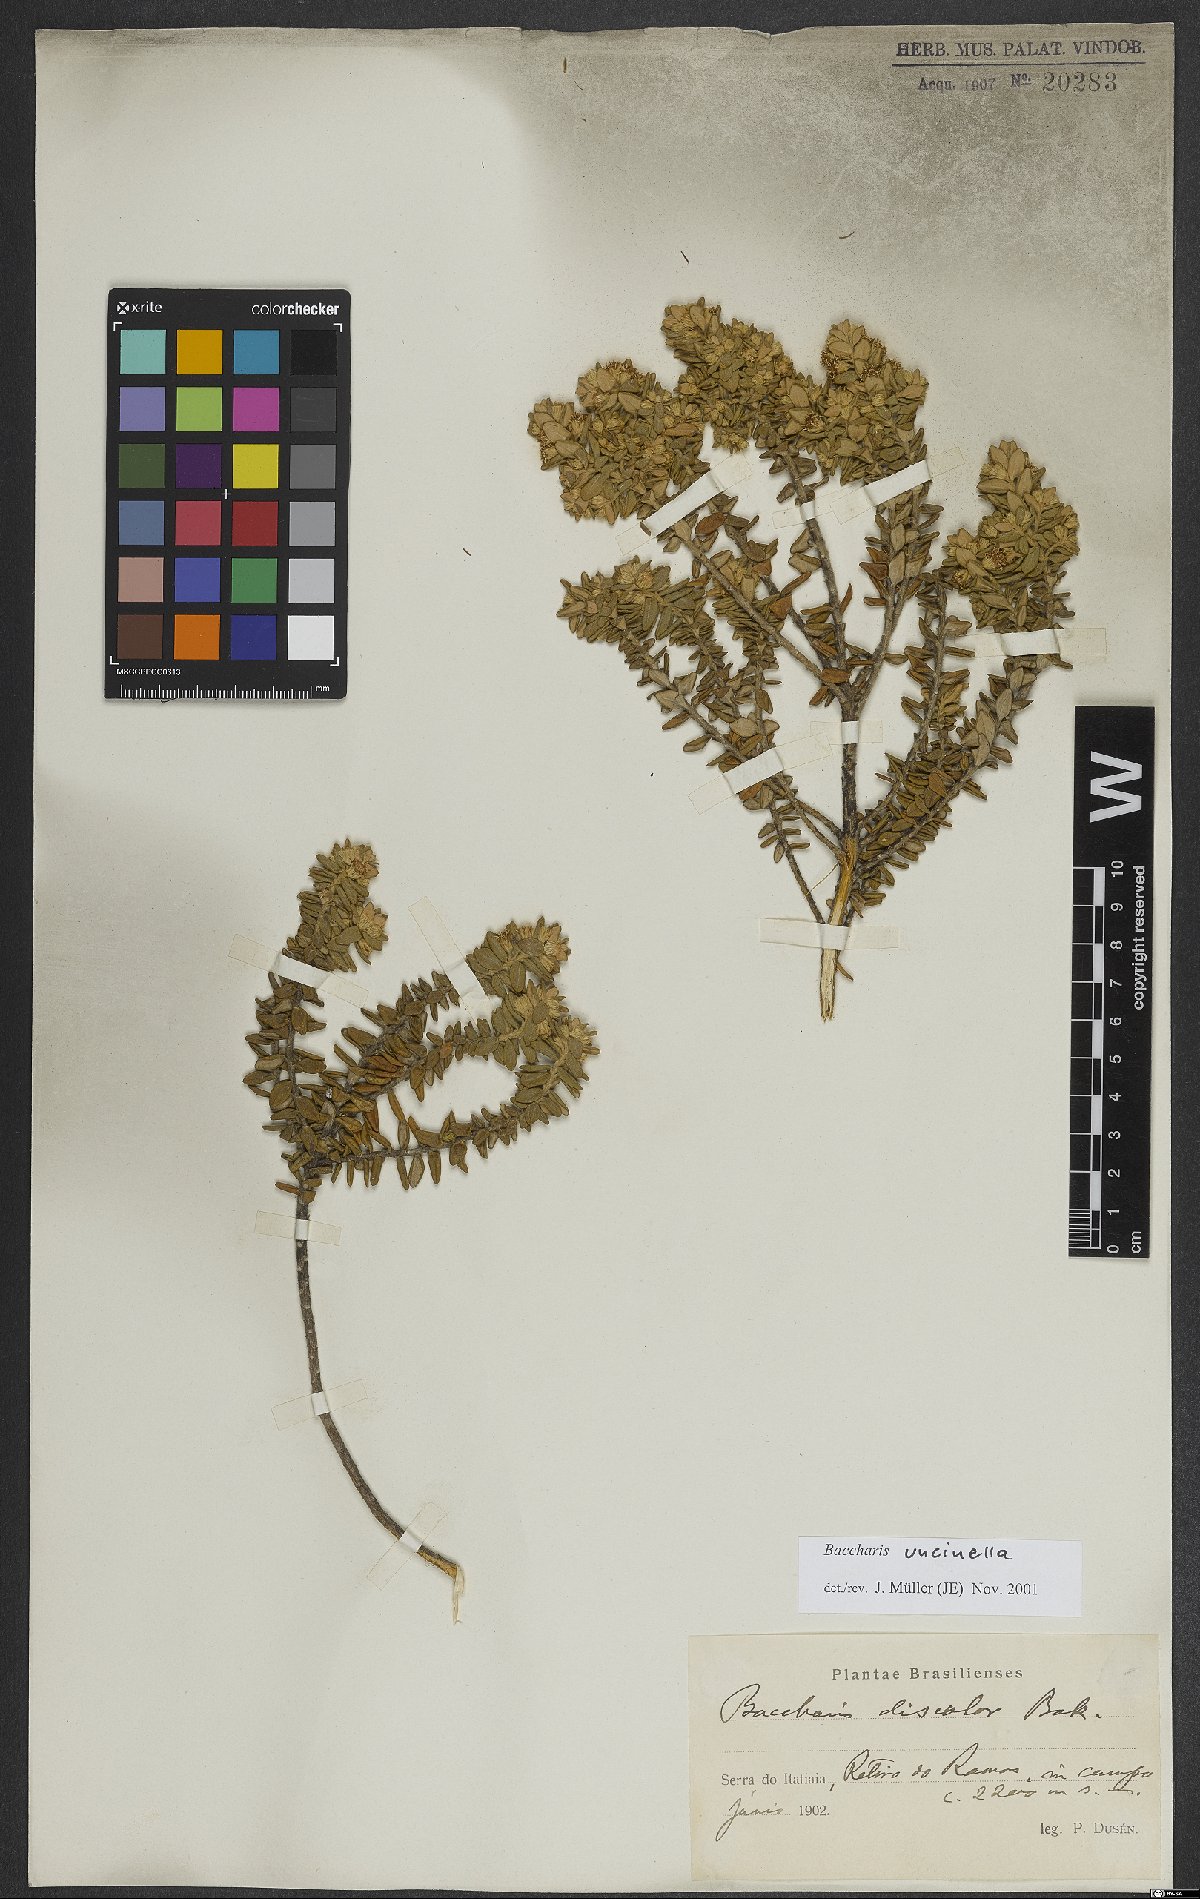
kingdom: Plantae
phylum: Tracheophyta
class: Magnoliopsida
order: Asterales
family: Asteraceae
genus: Baccharis
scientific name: Baccharis uncinella
